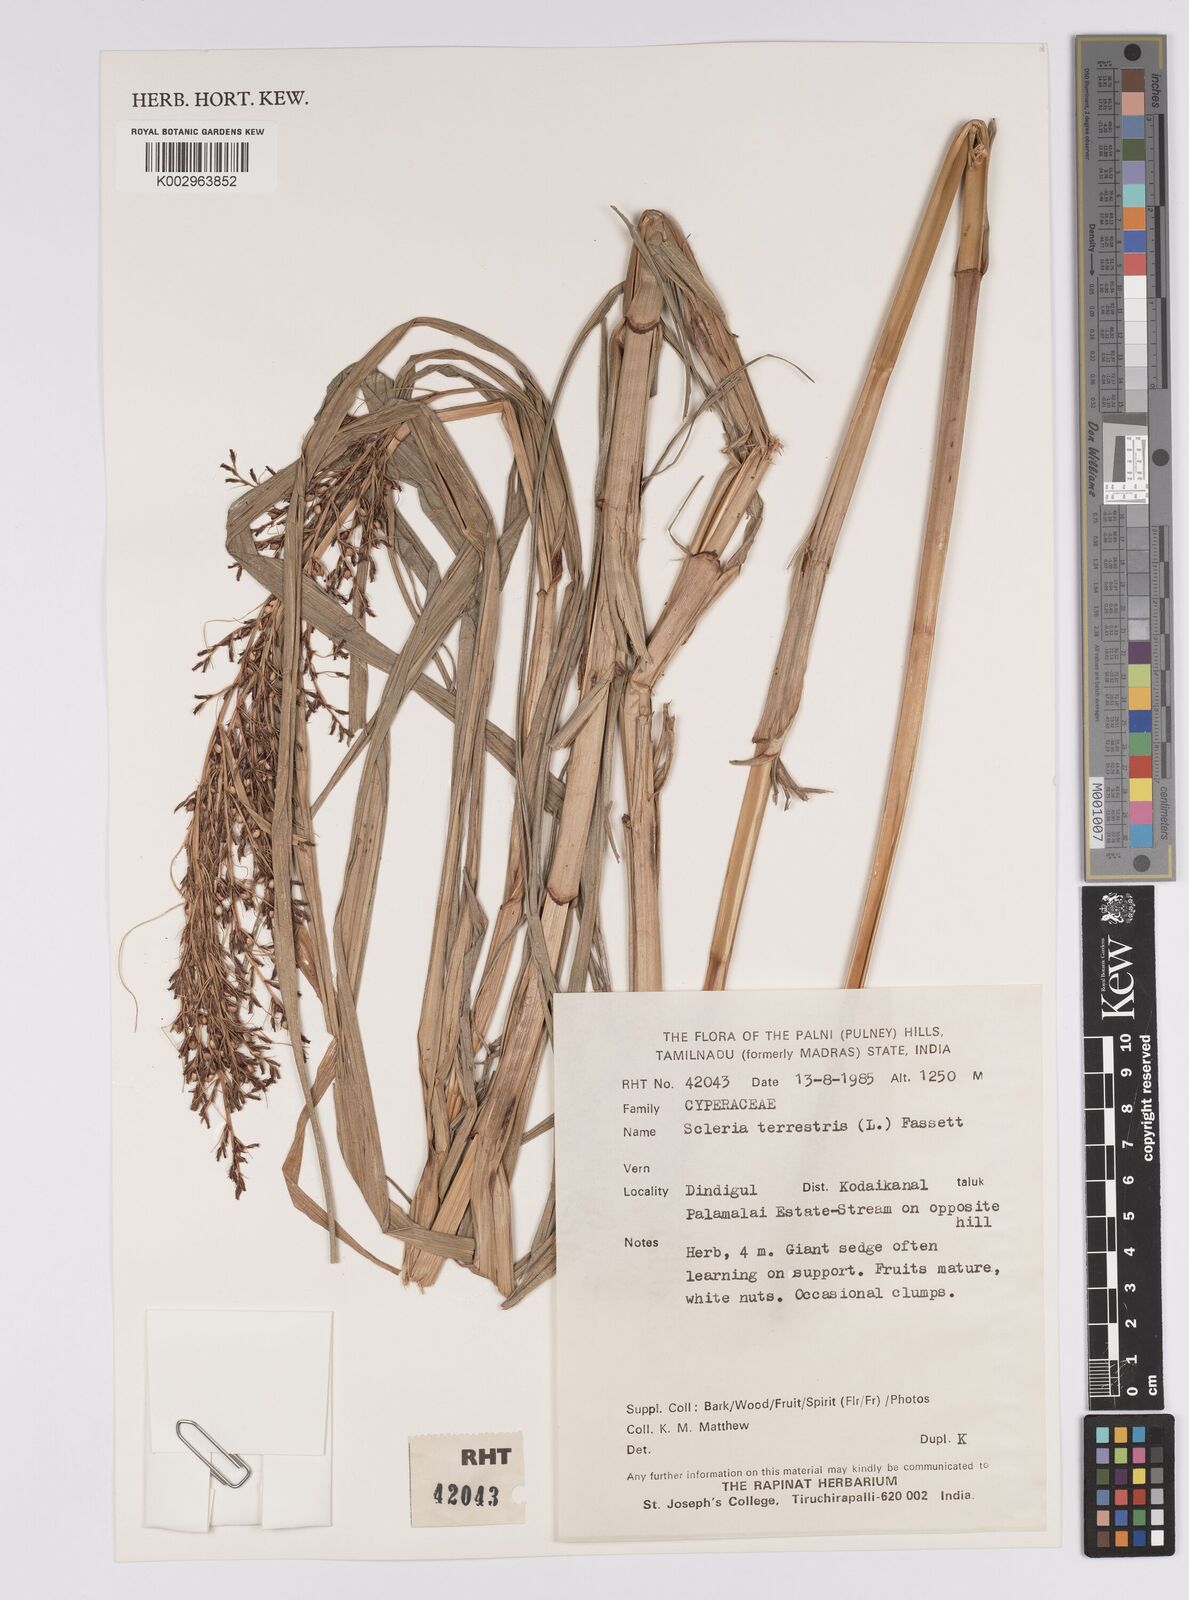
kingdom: Plantae
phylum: Tracheophyta
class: Liliopsida
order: Poales
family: Cyperaceae
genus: Scleria
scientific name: Scleria terrestris
